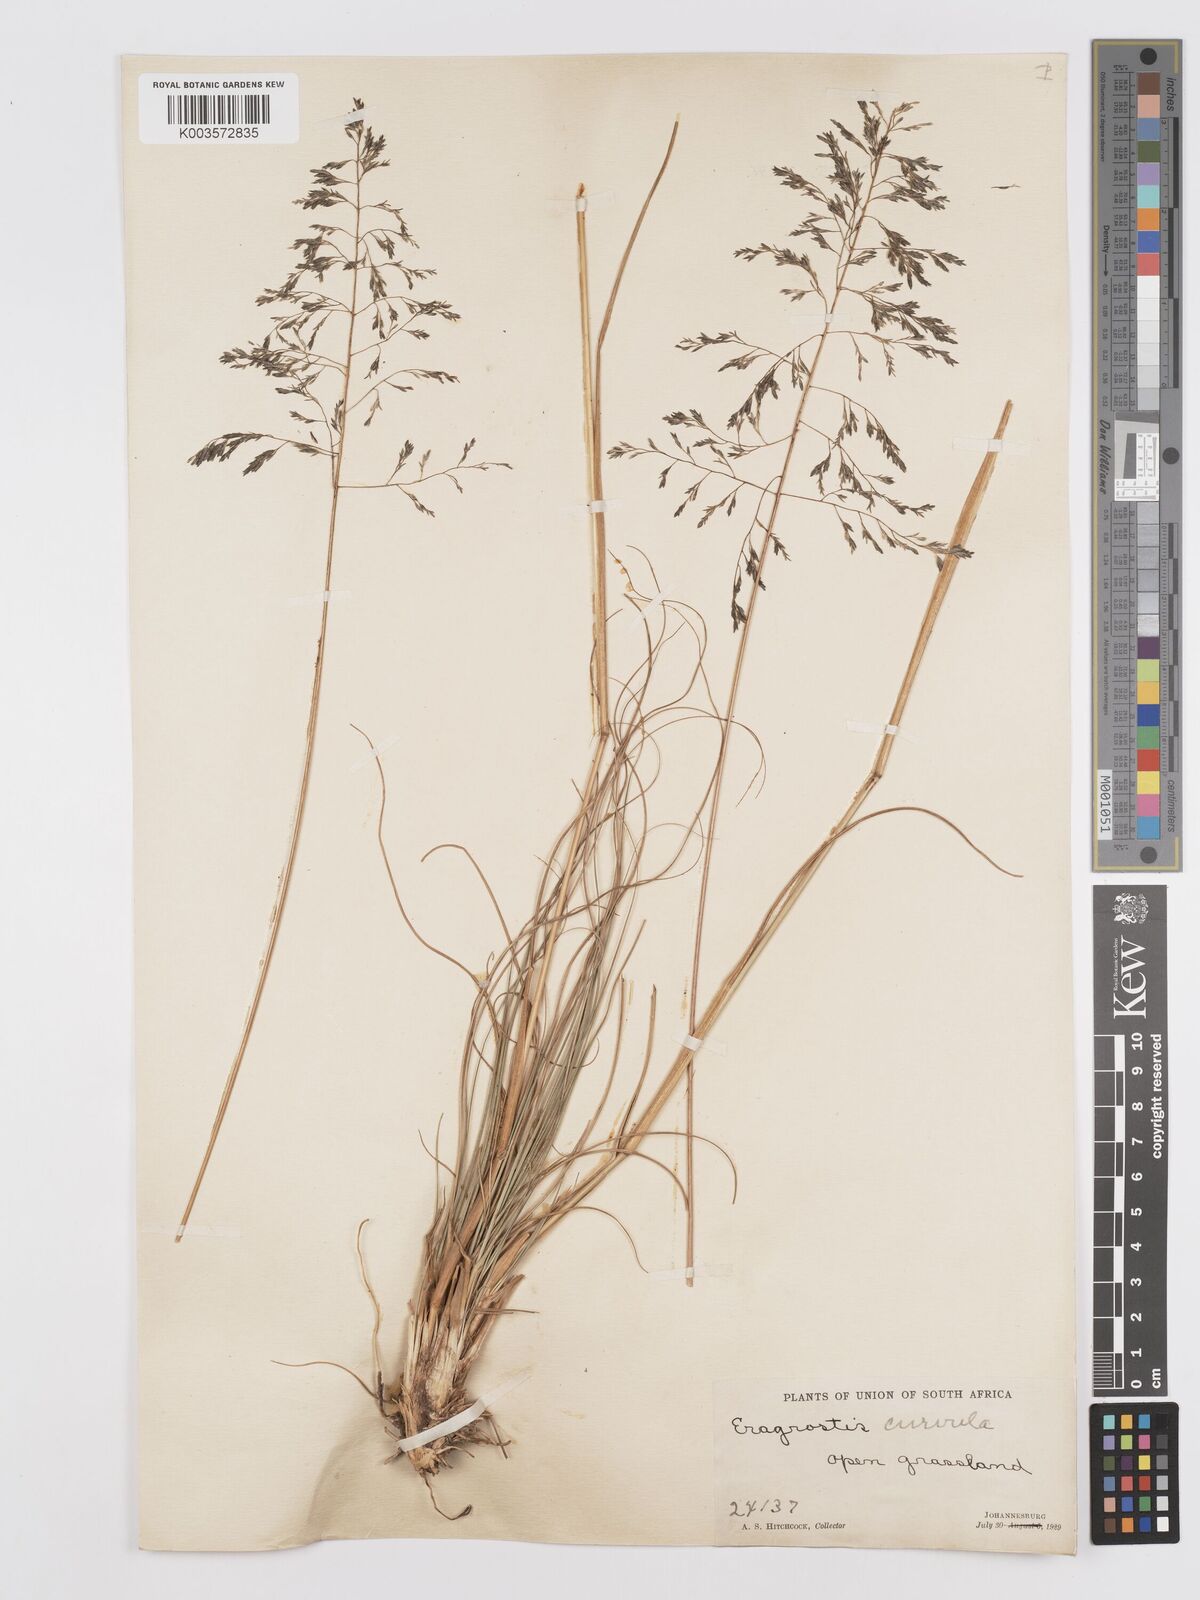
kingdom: Plantae
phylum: Tracheophyta
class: Liliopsida
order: Poales
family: Poaceae
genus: Eragrostis
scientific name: Eragrostis curvula
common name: African love-grass
